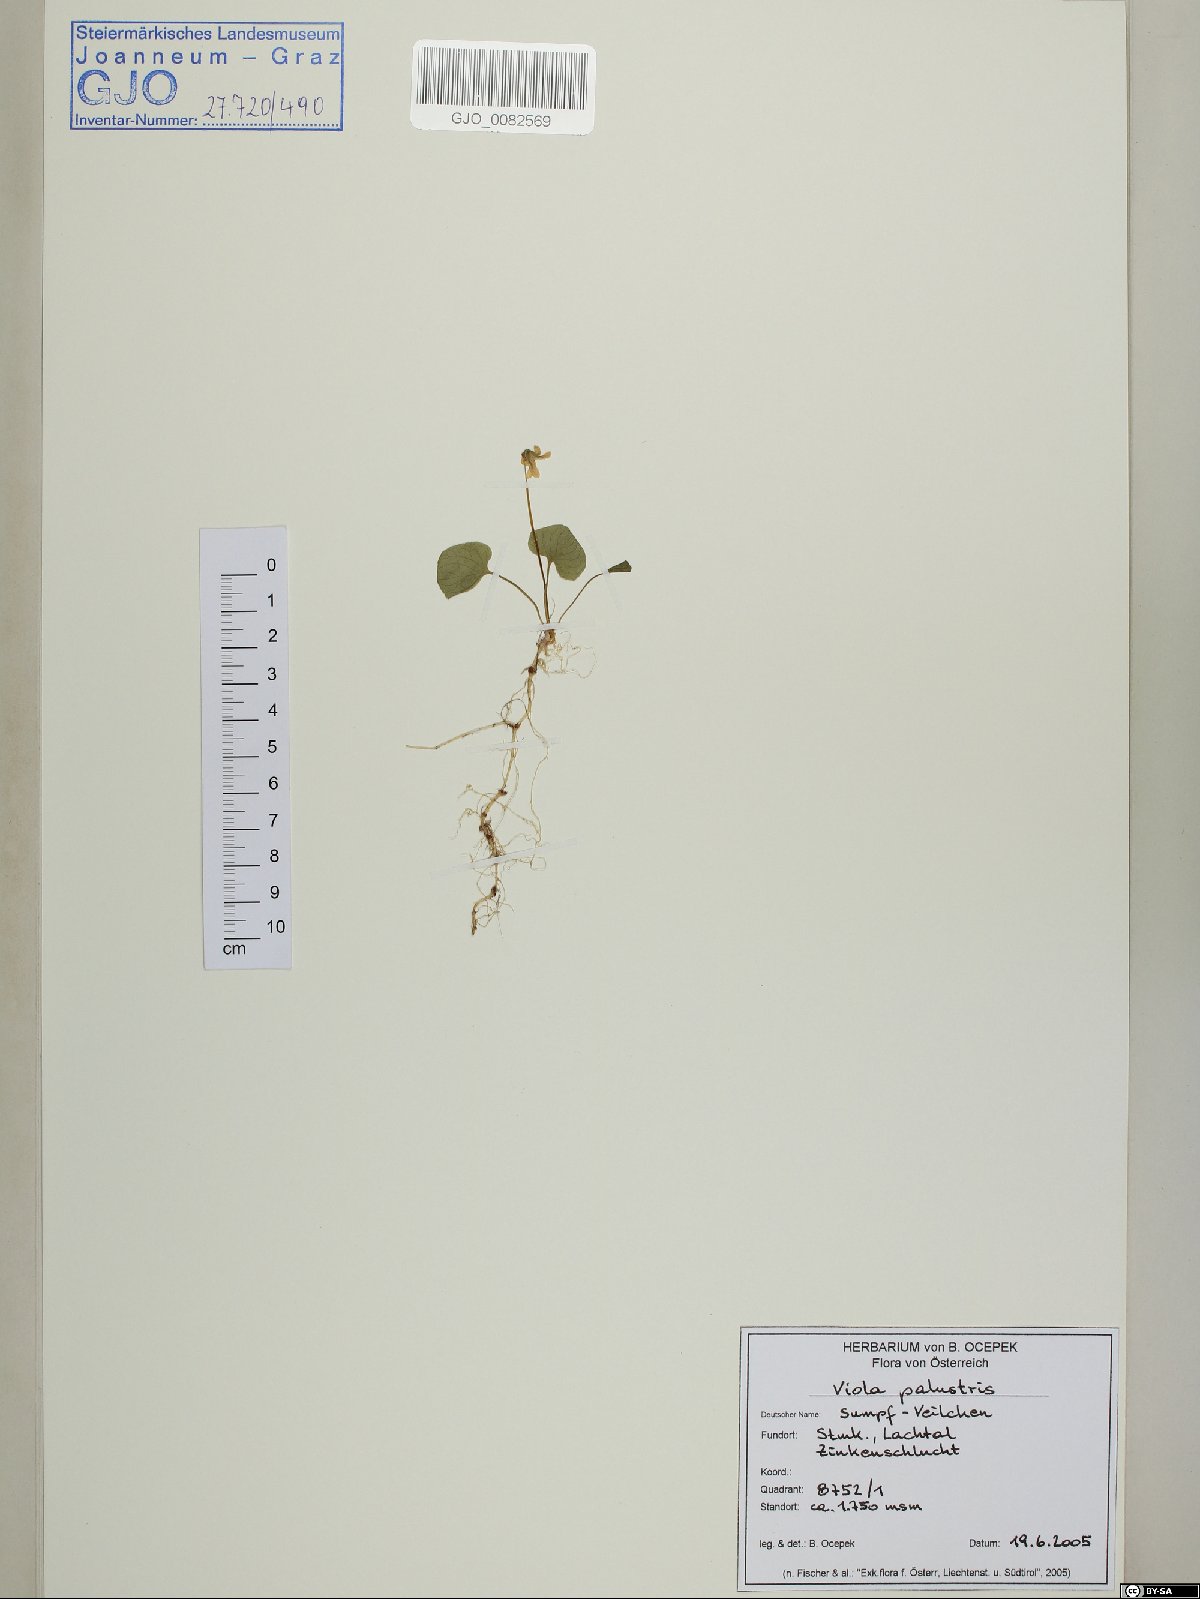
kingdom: Plantae
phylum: Tracheophyta
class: Magnoliopsida
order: Malpighiales
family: Violaceae
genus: Viola
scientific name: Viola palustris
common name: Marsh violet
